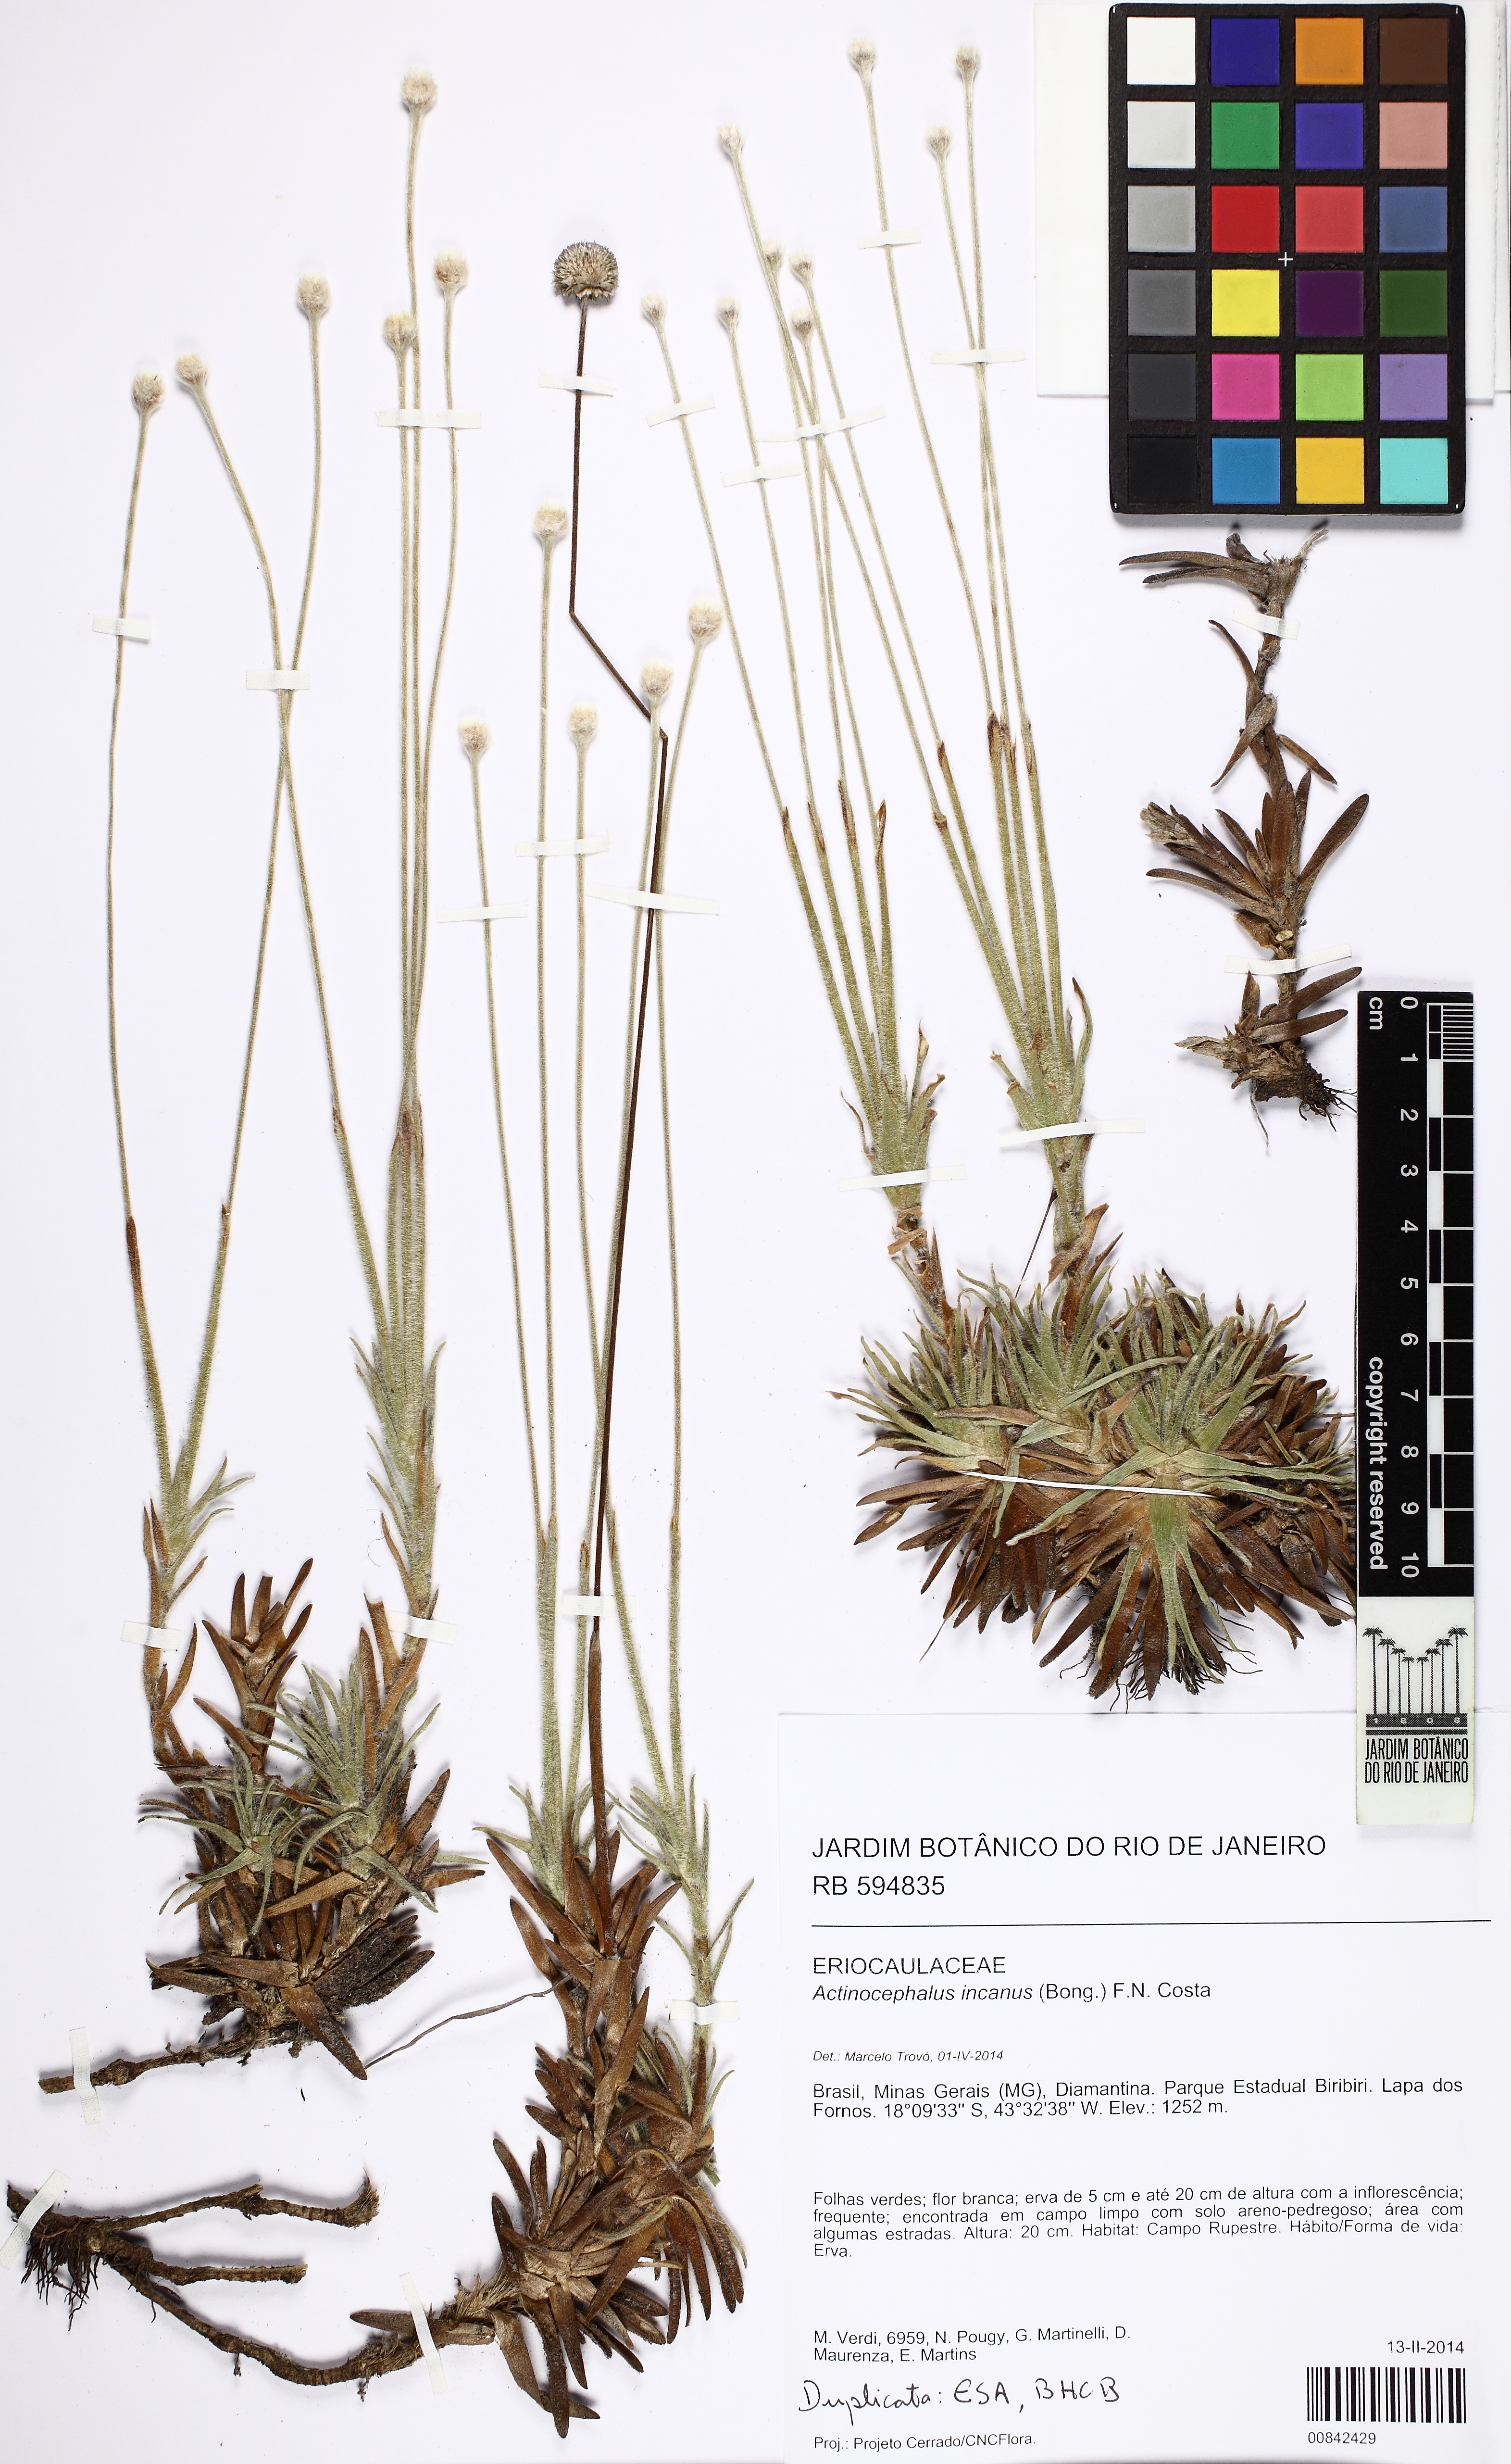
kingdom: Plantae
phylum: Tracheophyta
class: Liliopsida
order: Poales
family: Eriocaulaceae
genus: Paepalanthus
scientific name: Paepalanthus incanus
